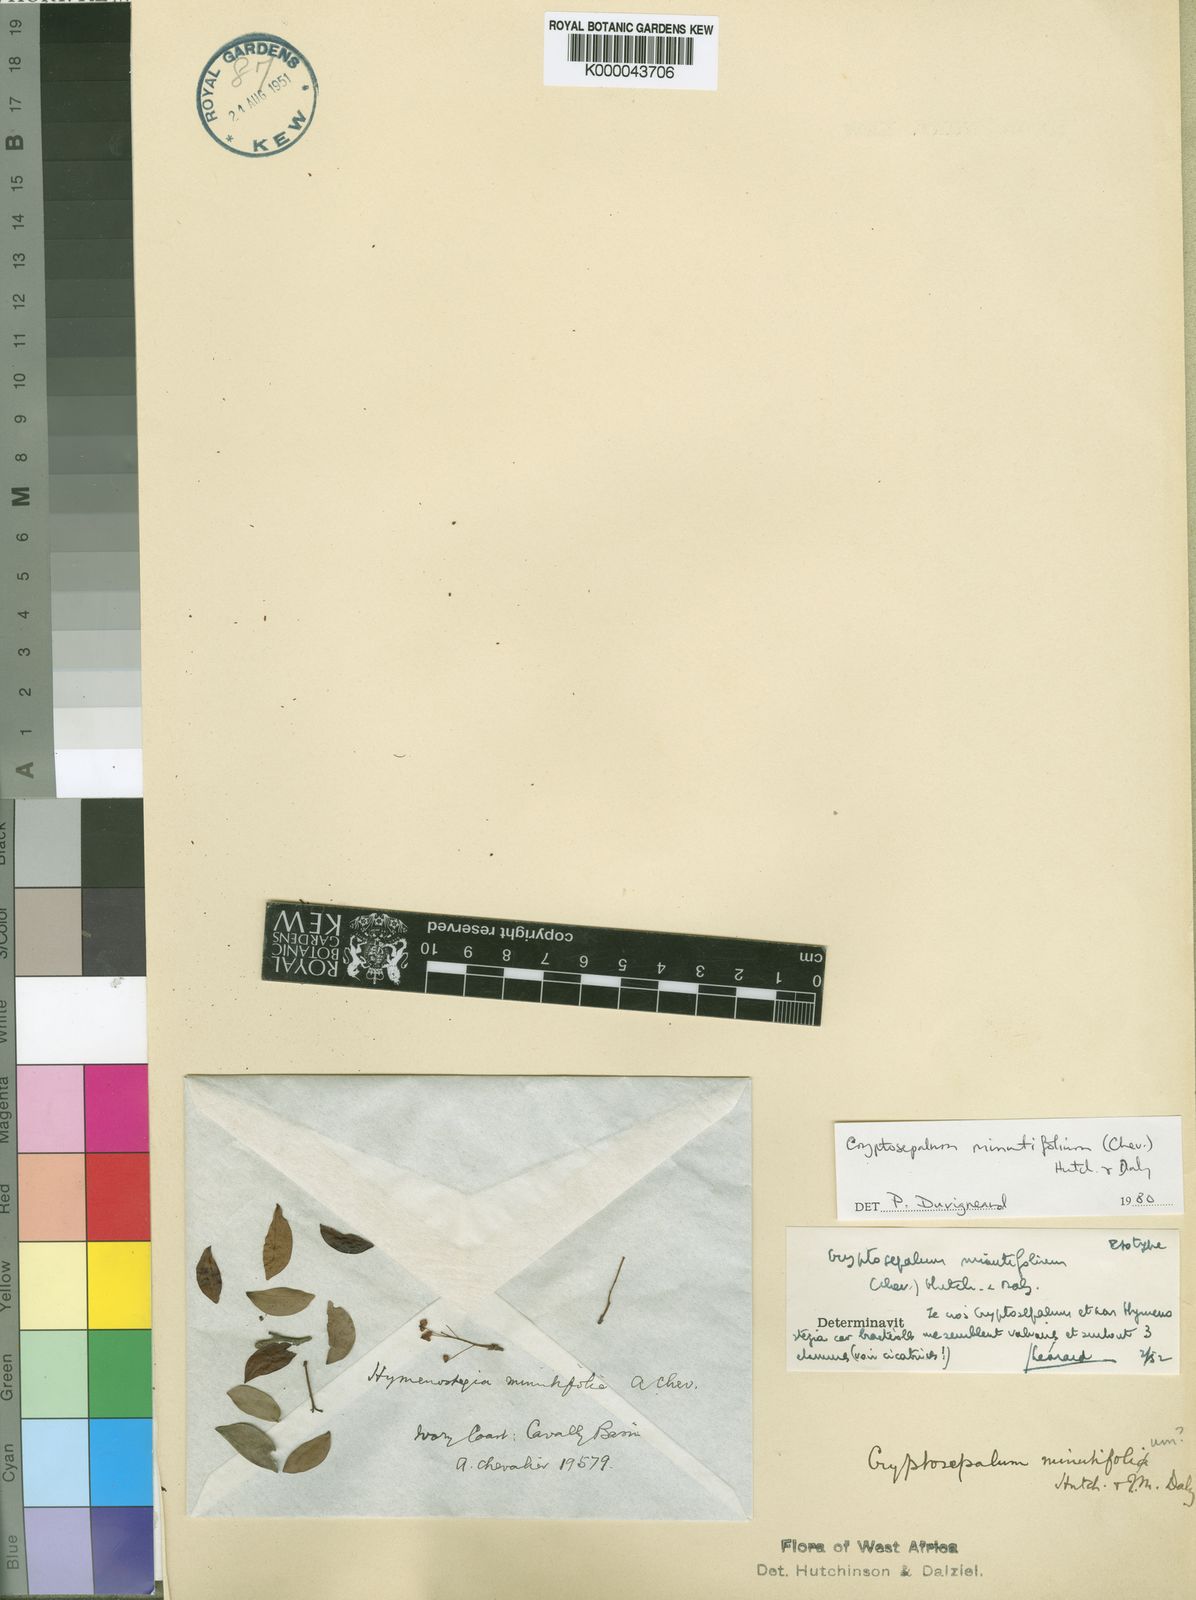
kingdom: Plantae
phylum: Tracheophyta
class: Magnoliopsida
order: Fabales
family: Fabaceae
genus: Cryptosepalum
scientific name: Cryptosepalum minutifolium
